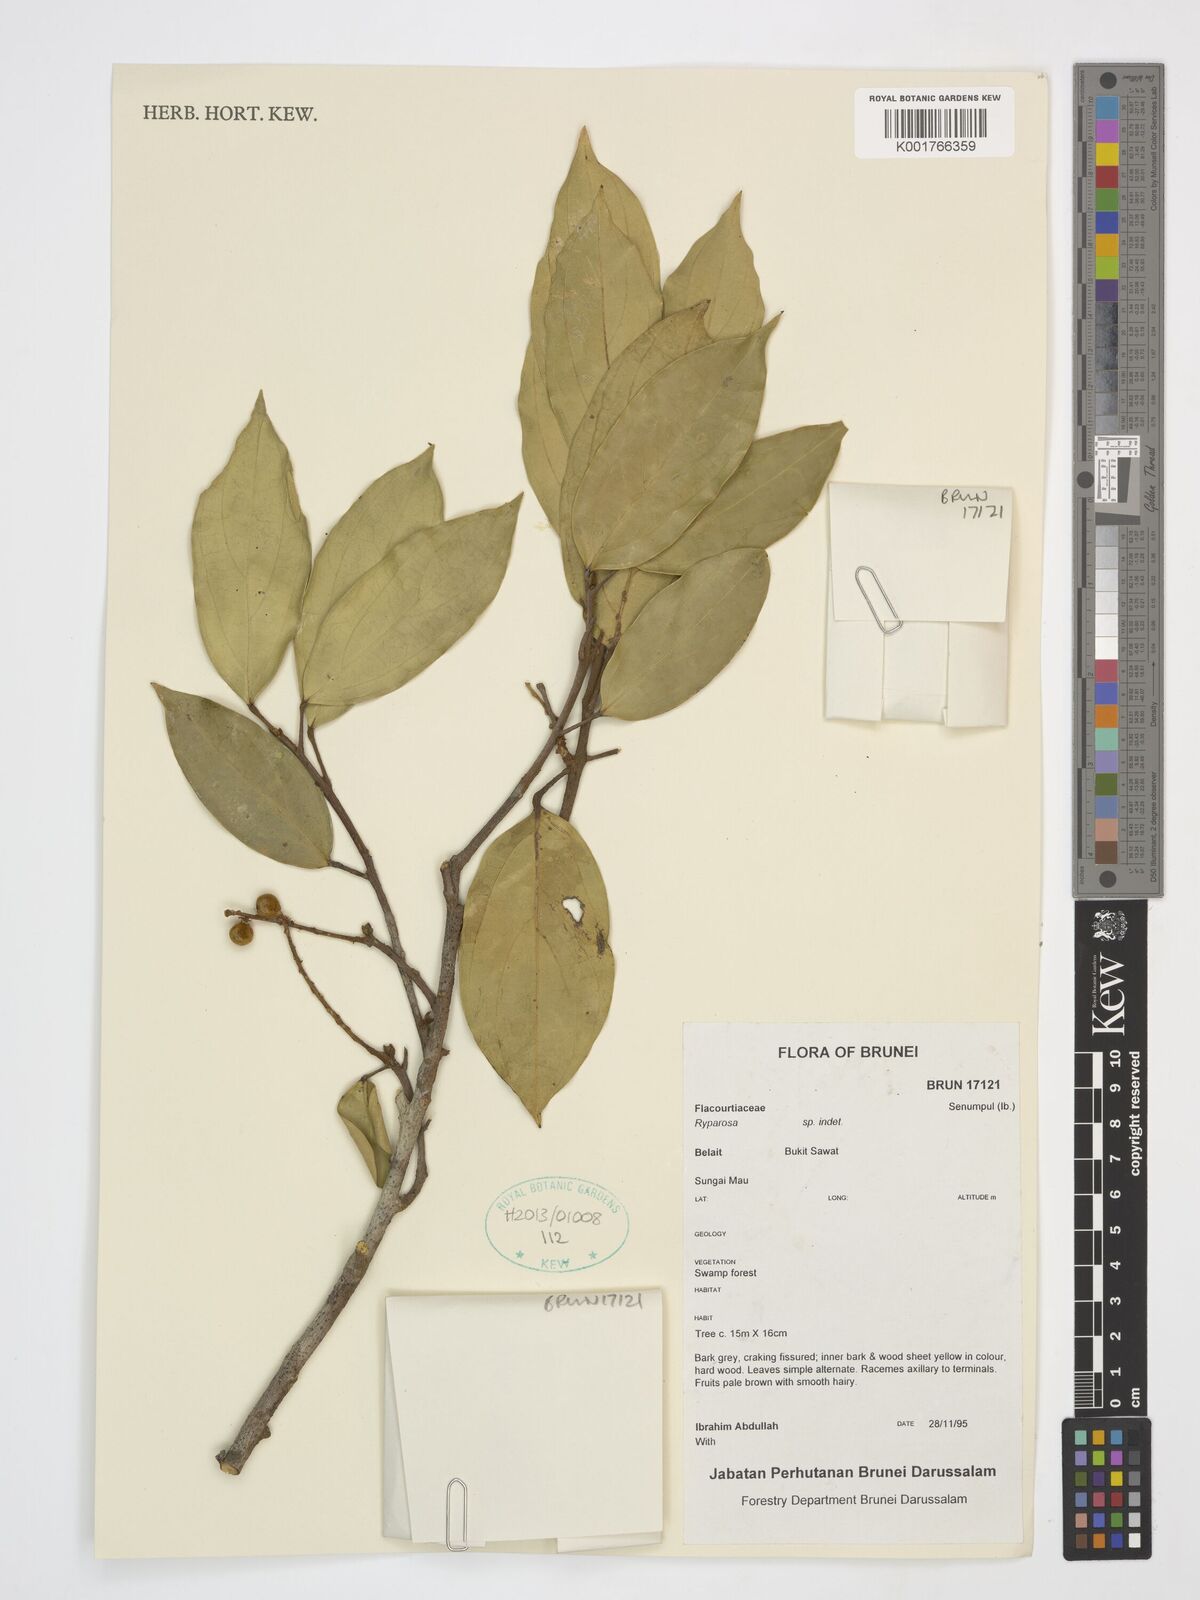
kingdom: Plantae
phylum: Tracheophyta
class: Magnoliopsida
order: Malpighiales
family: Achariaceae
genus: Ryparosa
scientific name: Ryparosa
